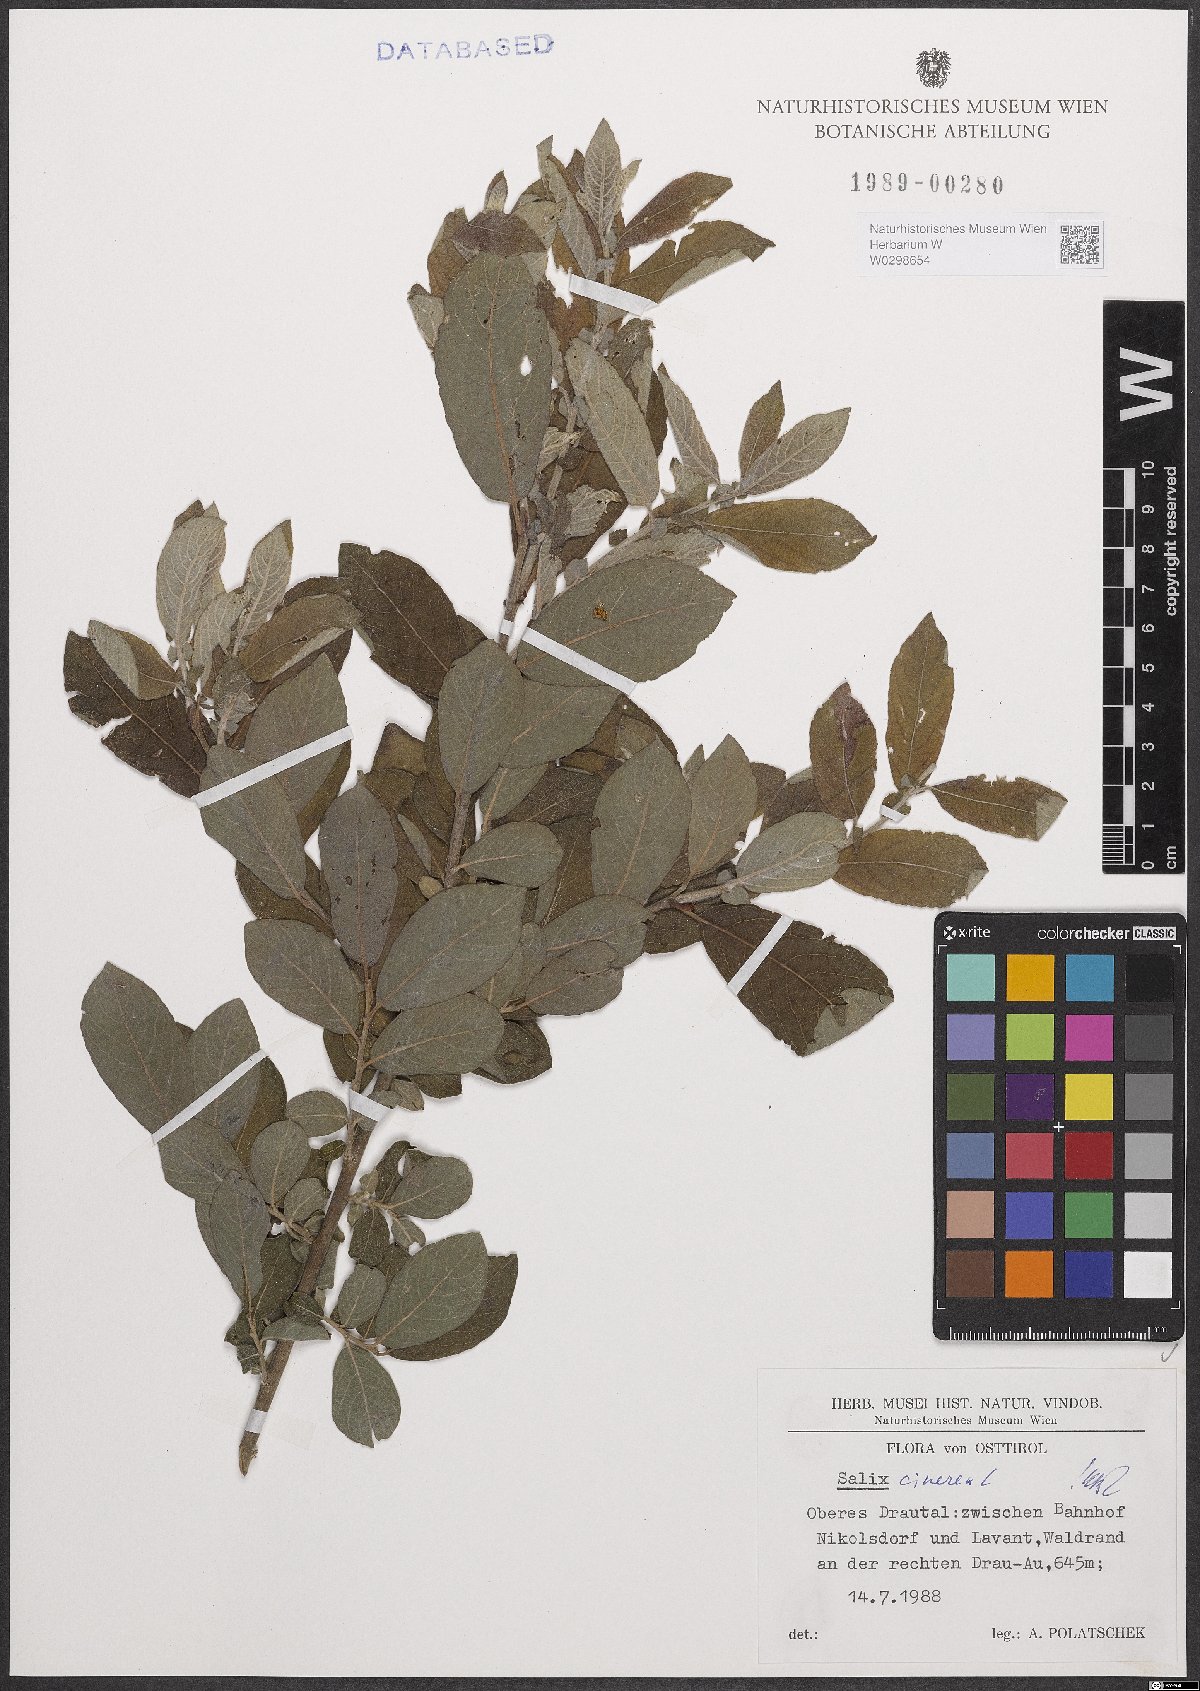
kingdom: Plantae
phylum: Tracheophyta
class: Magnoliopsida
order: Malpighiales
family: Salicaceae
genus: Salix
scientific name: Salix cinerea
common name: Common sallow
